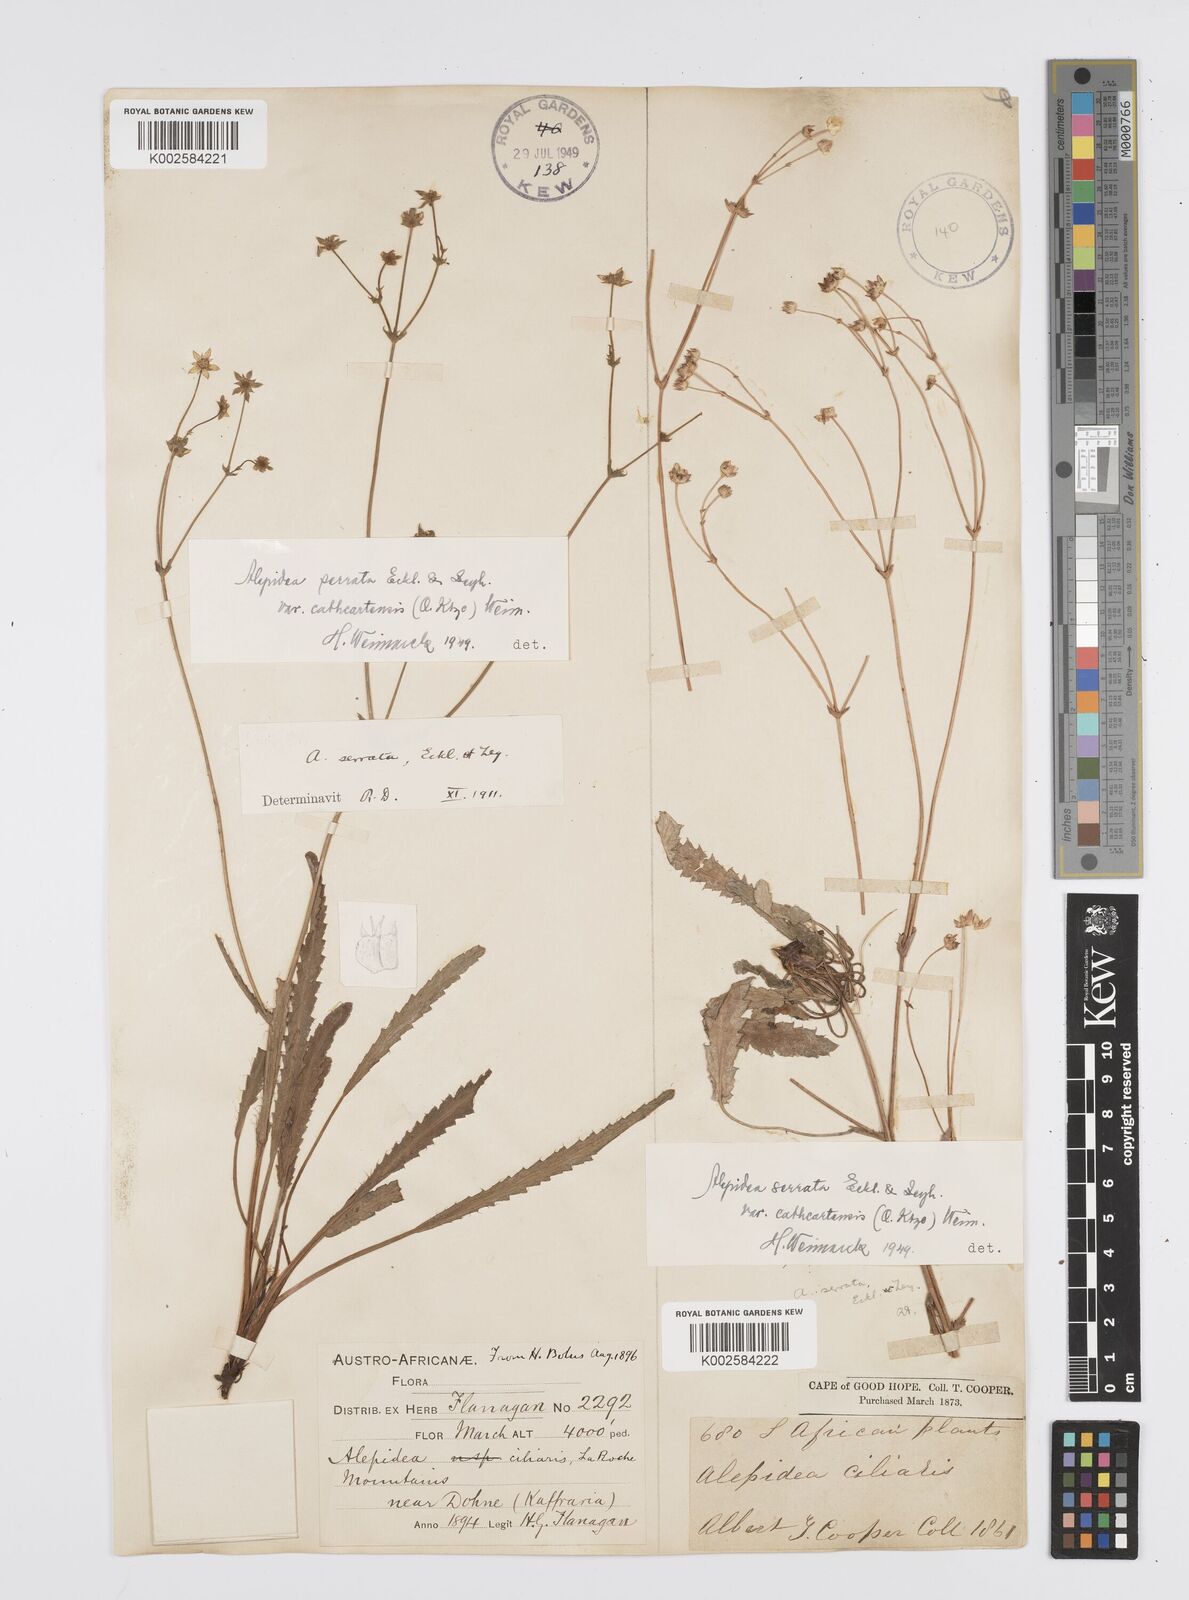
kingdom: Plantae
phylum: Tracheophyta
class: Magnoliopsida
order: Apiales
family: Apiaceae
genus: Alepidea
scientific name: Alepidea serrata
